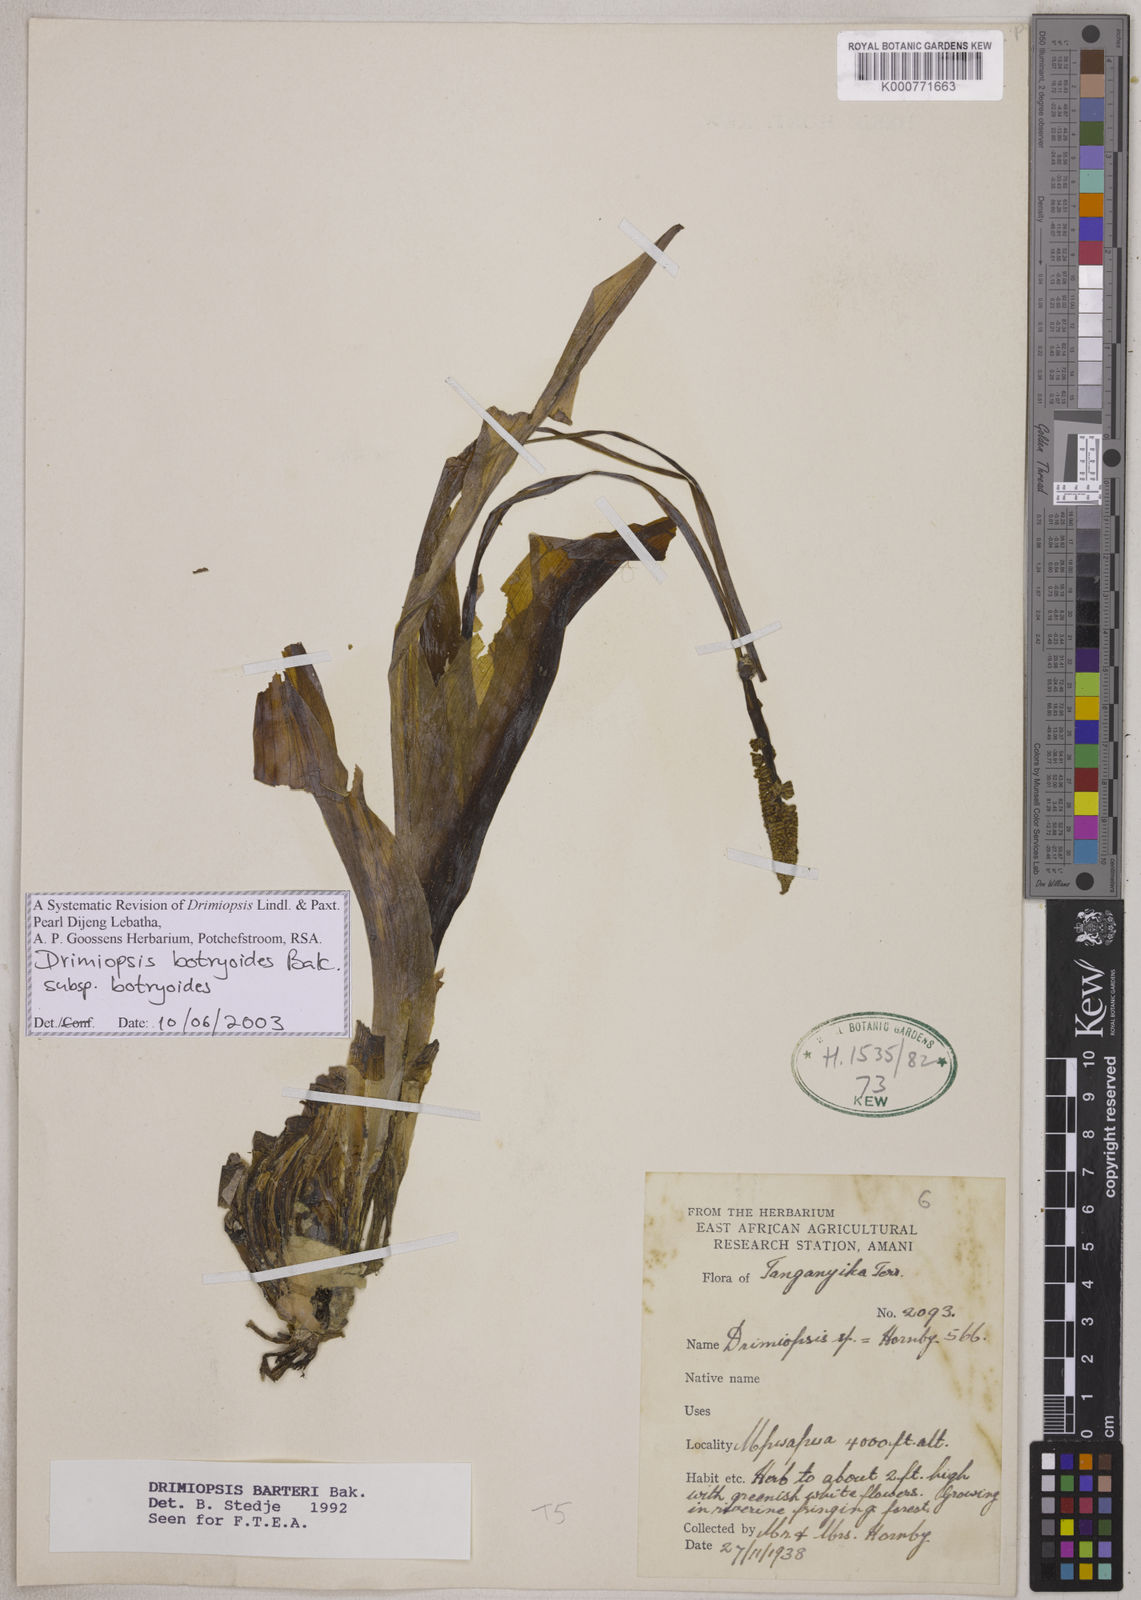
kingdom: Plantae
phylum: Tracheophyta
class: Liliopsida
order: Asparagales
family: Asparagaceae
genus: Drimiopsis
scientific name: Drimiopsis botryoides
